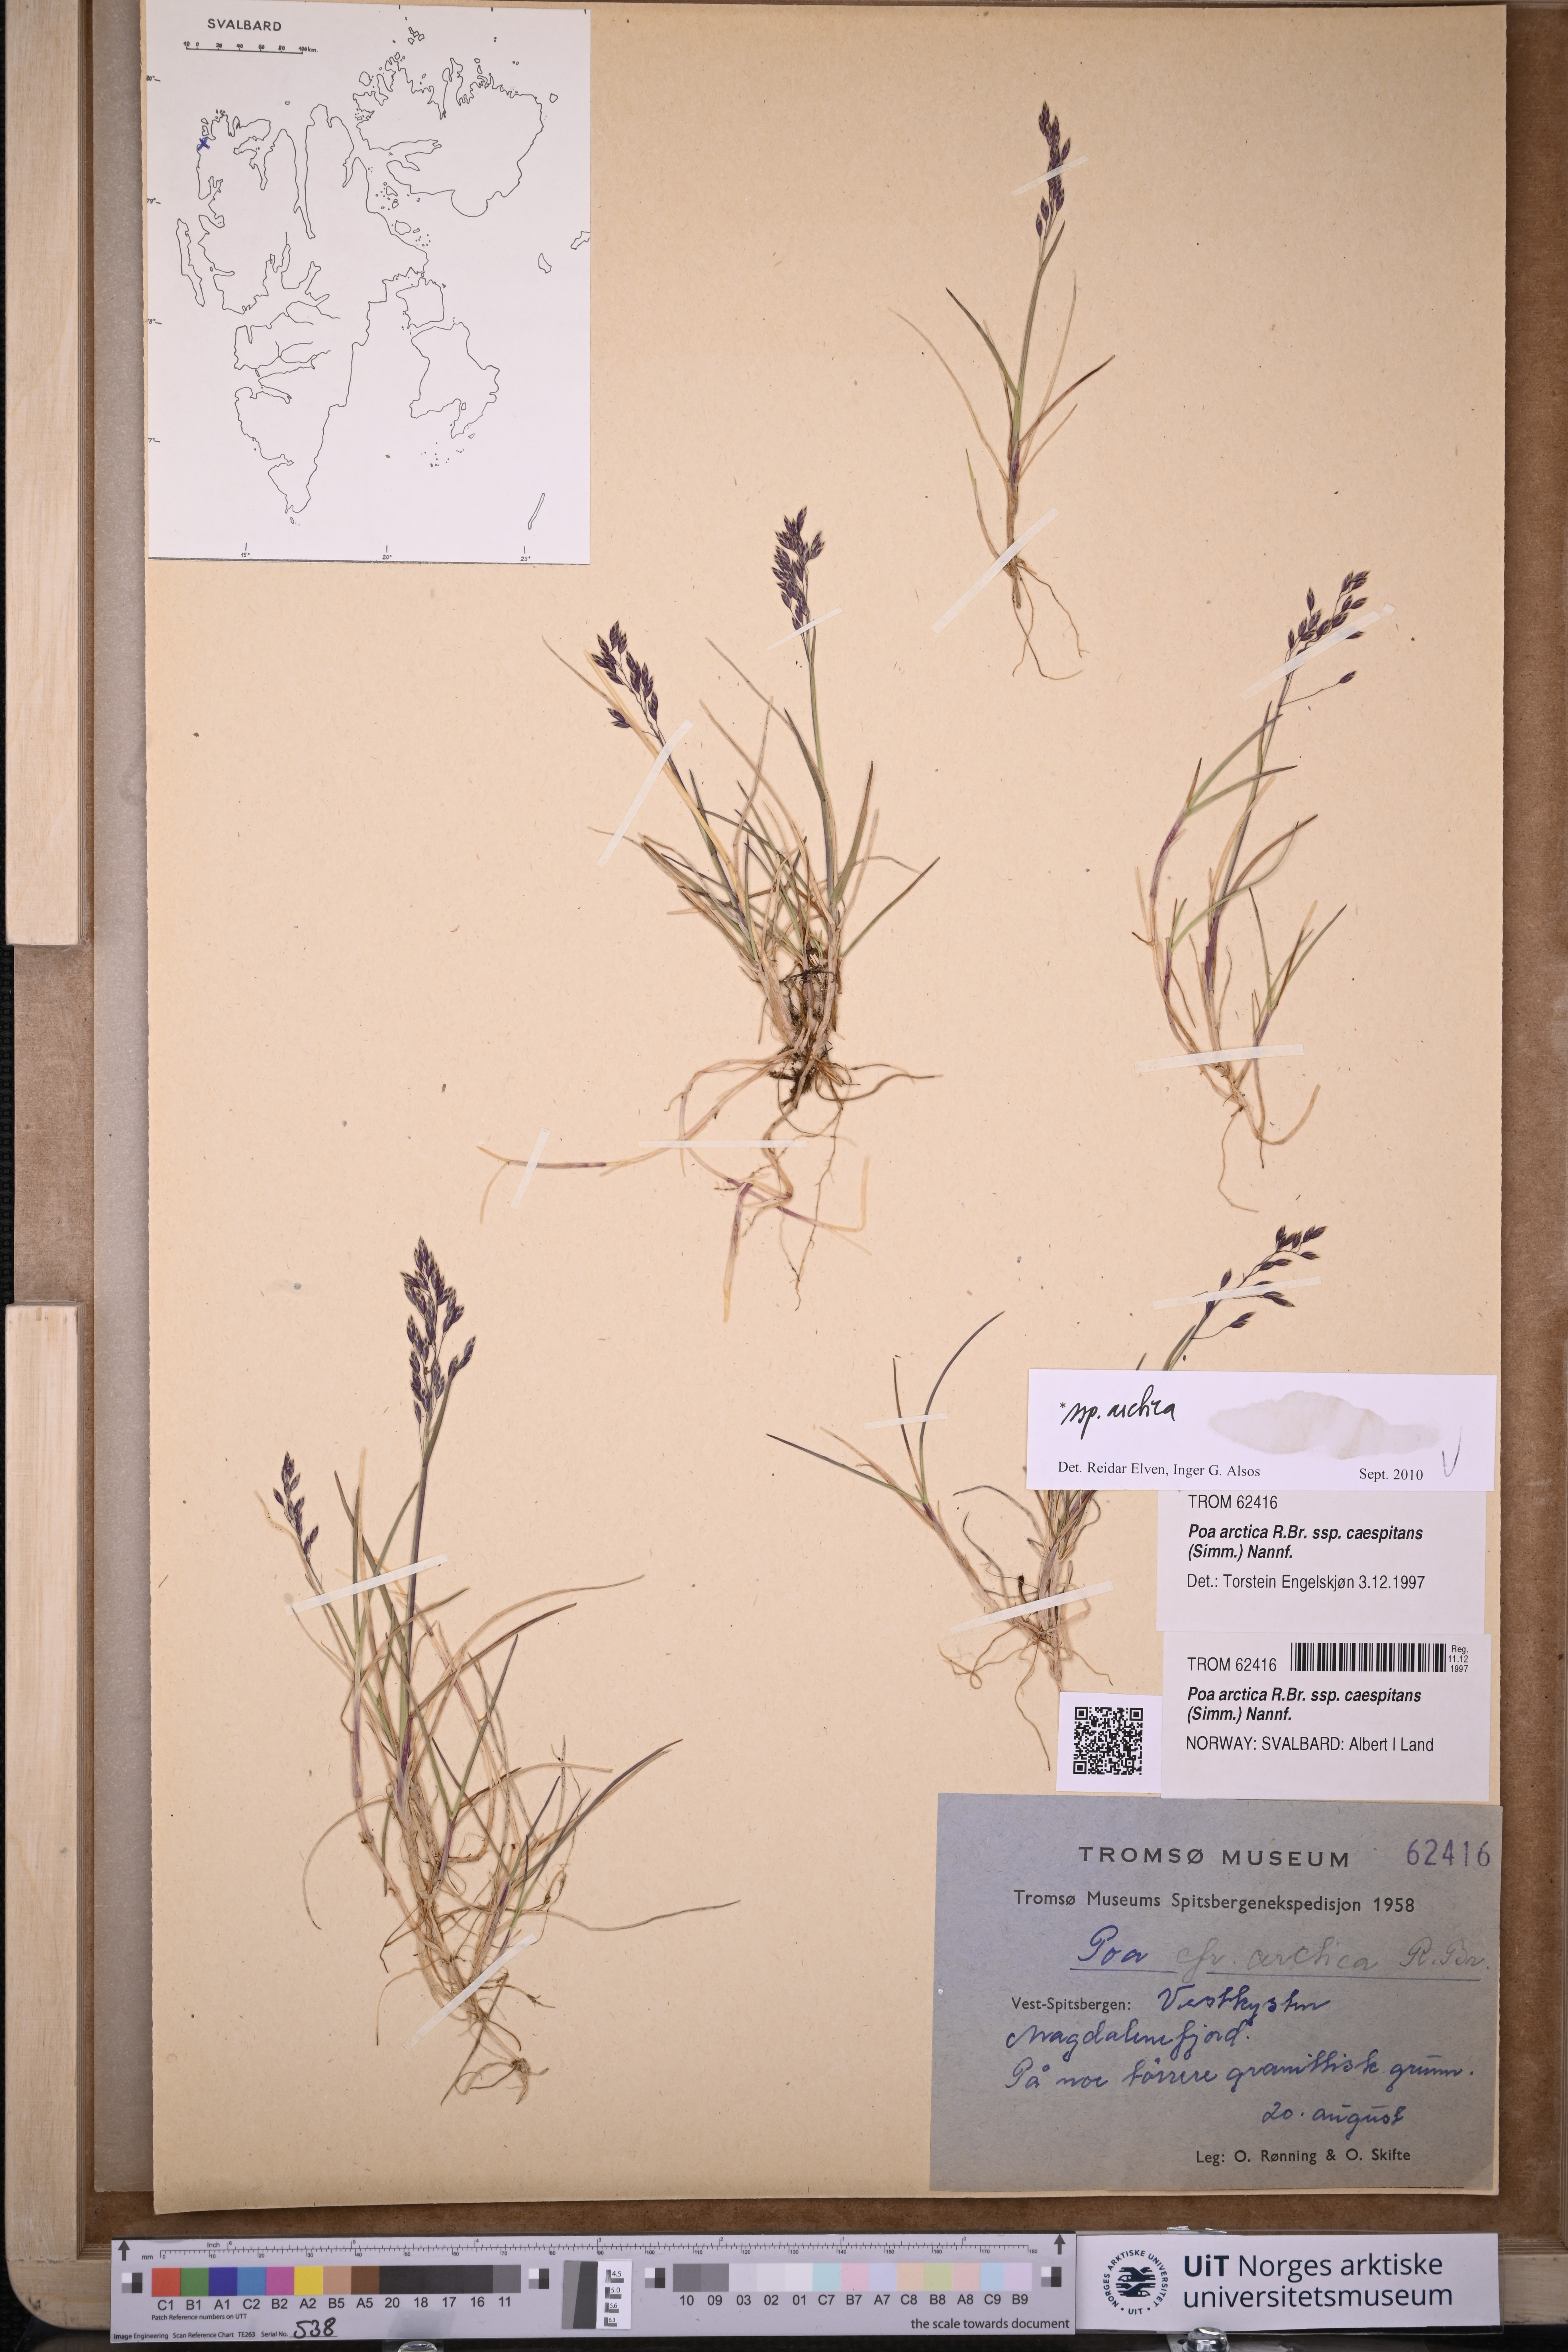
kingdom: Plantae
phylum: Tracheophyta
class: Liliopsida
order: Poales
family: Poaceae
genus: Poa
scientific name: Poa arctica
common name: Arctic bluegrass
